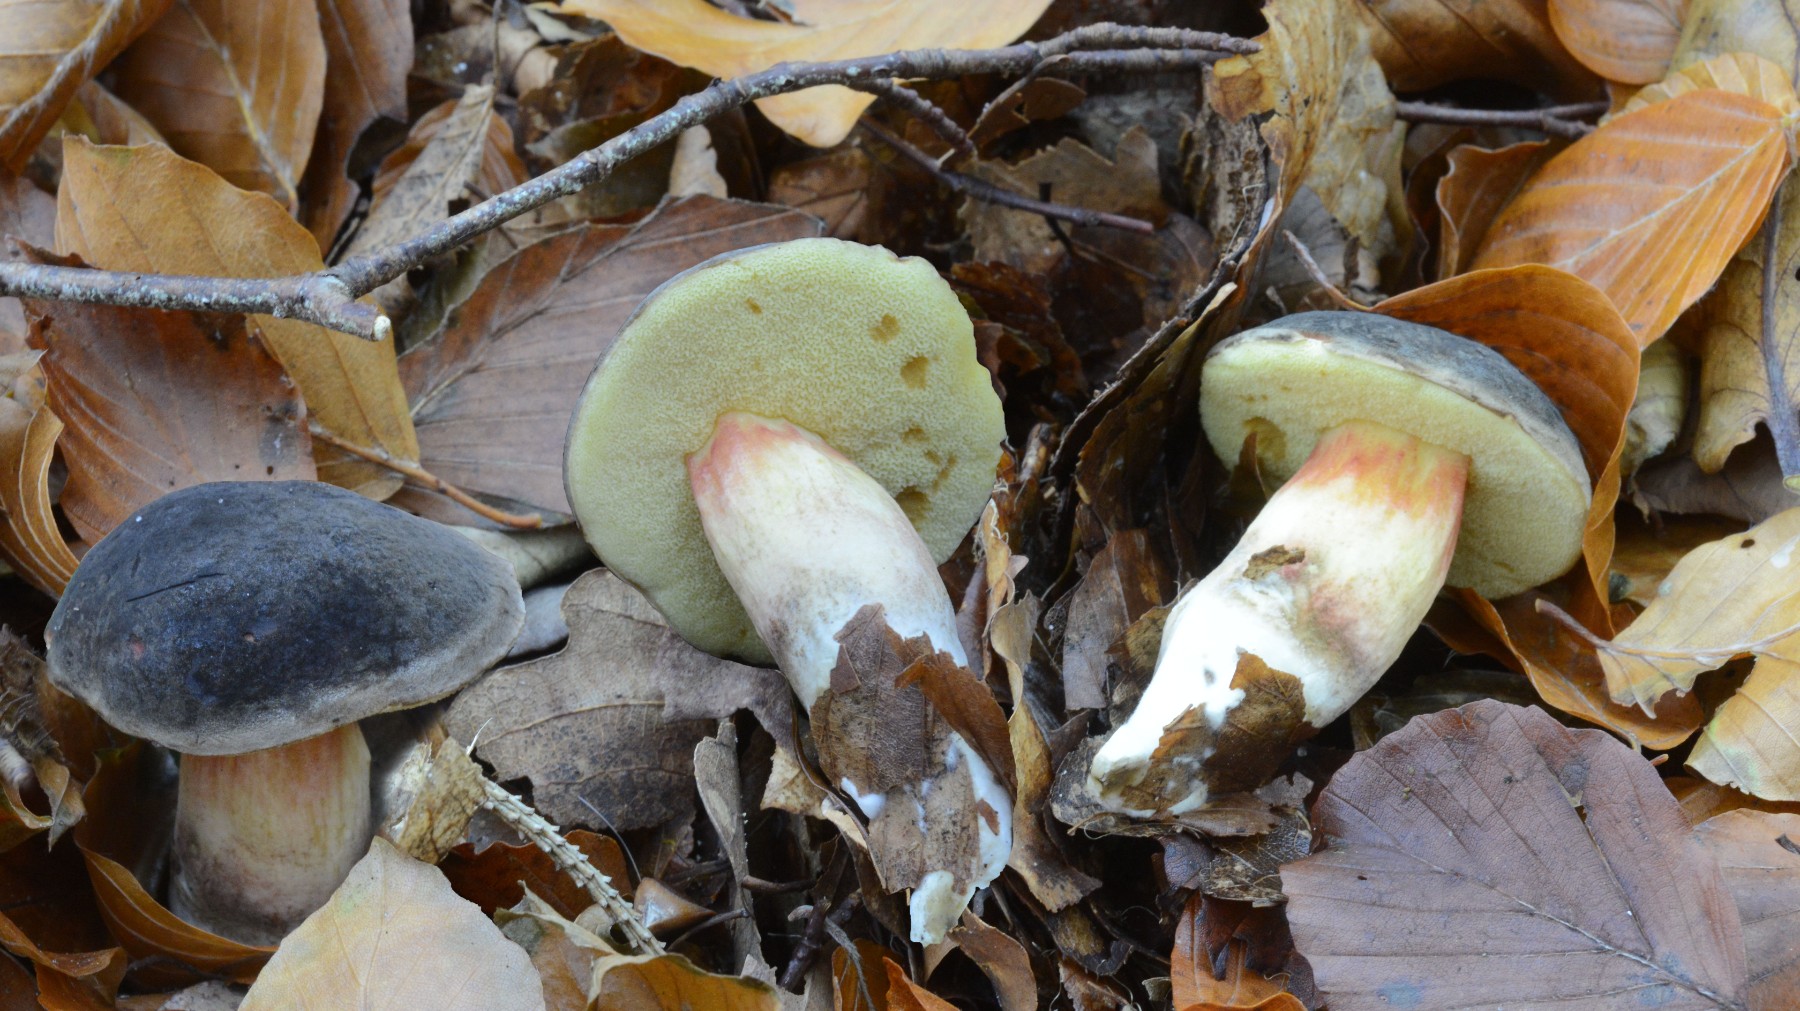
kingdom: Fungi
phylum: Basidiomycota
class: Agaricomycetes
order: Boletales
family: Boletaceae
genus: Xerocomellus
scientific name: Xerocomellus pruinatus
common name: dugget rørhat
